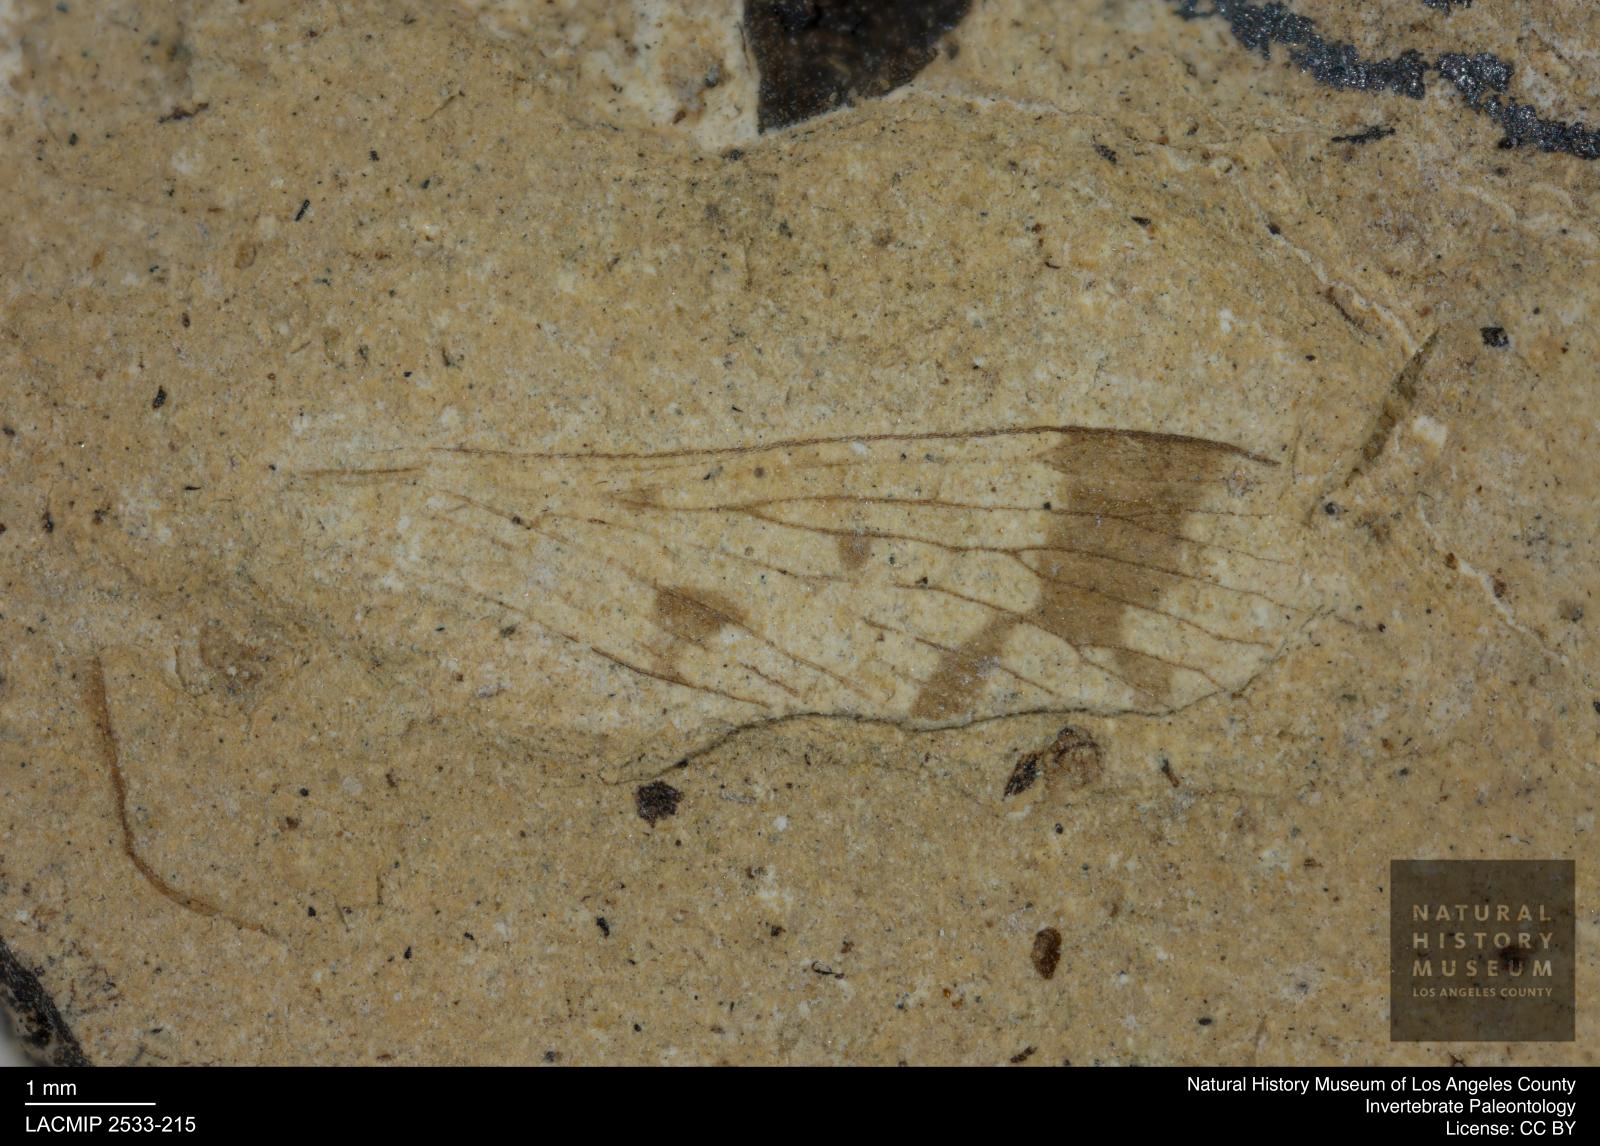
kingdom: Animalia
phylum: Arthropoda
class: Insecta
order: Mecoptera
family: Panorpidae
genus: Panorpa
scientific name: Panorpa rottensis
